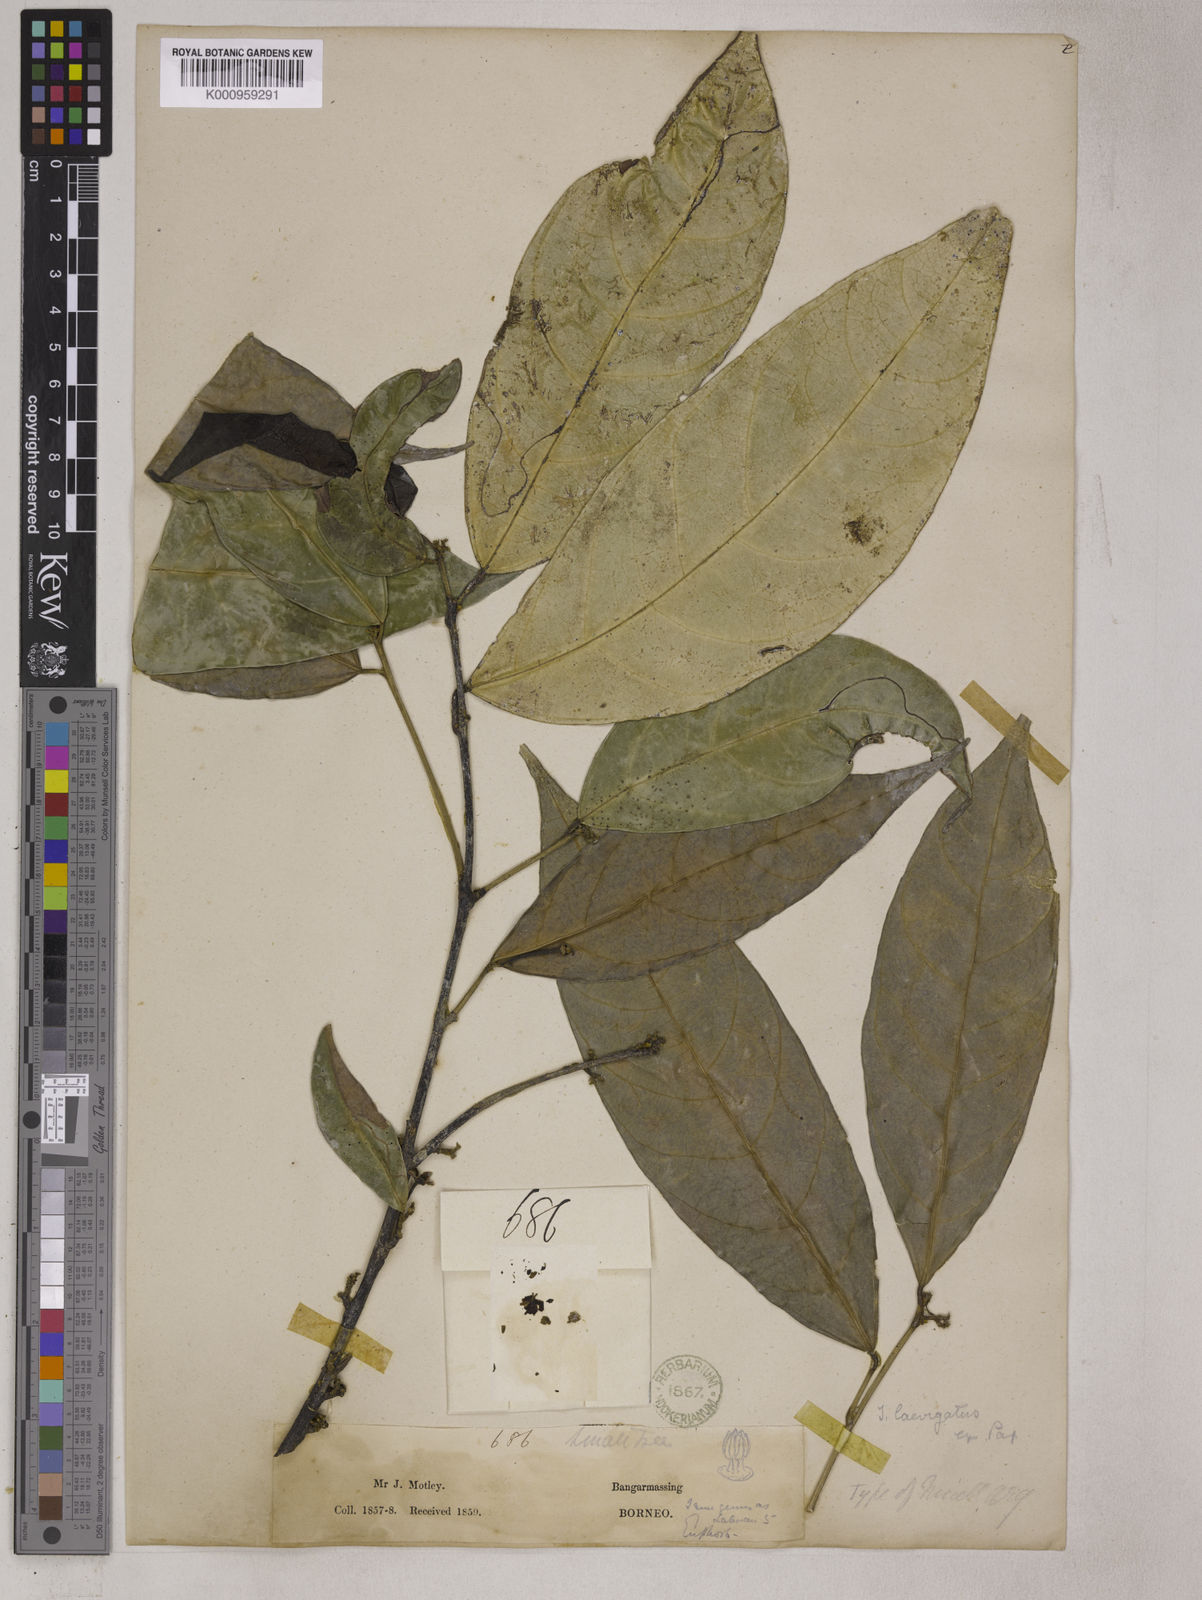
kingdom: Plantae
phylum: Tracheophyta
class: Magnoliopsida
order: Malpighiales
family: Euphorbiaceae
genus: Trigonostemon
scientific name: Trigonostemon laevigatus
